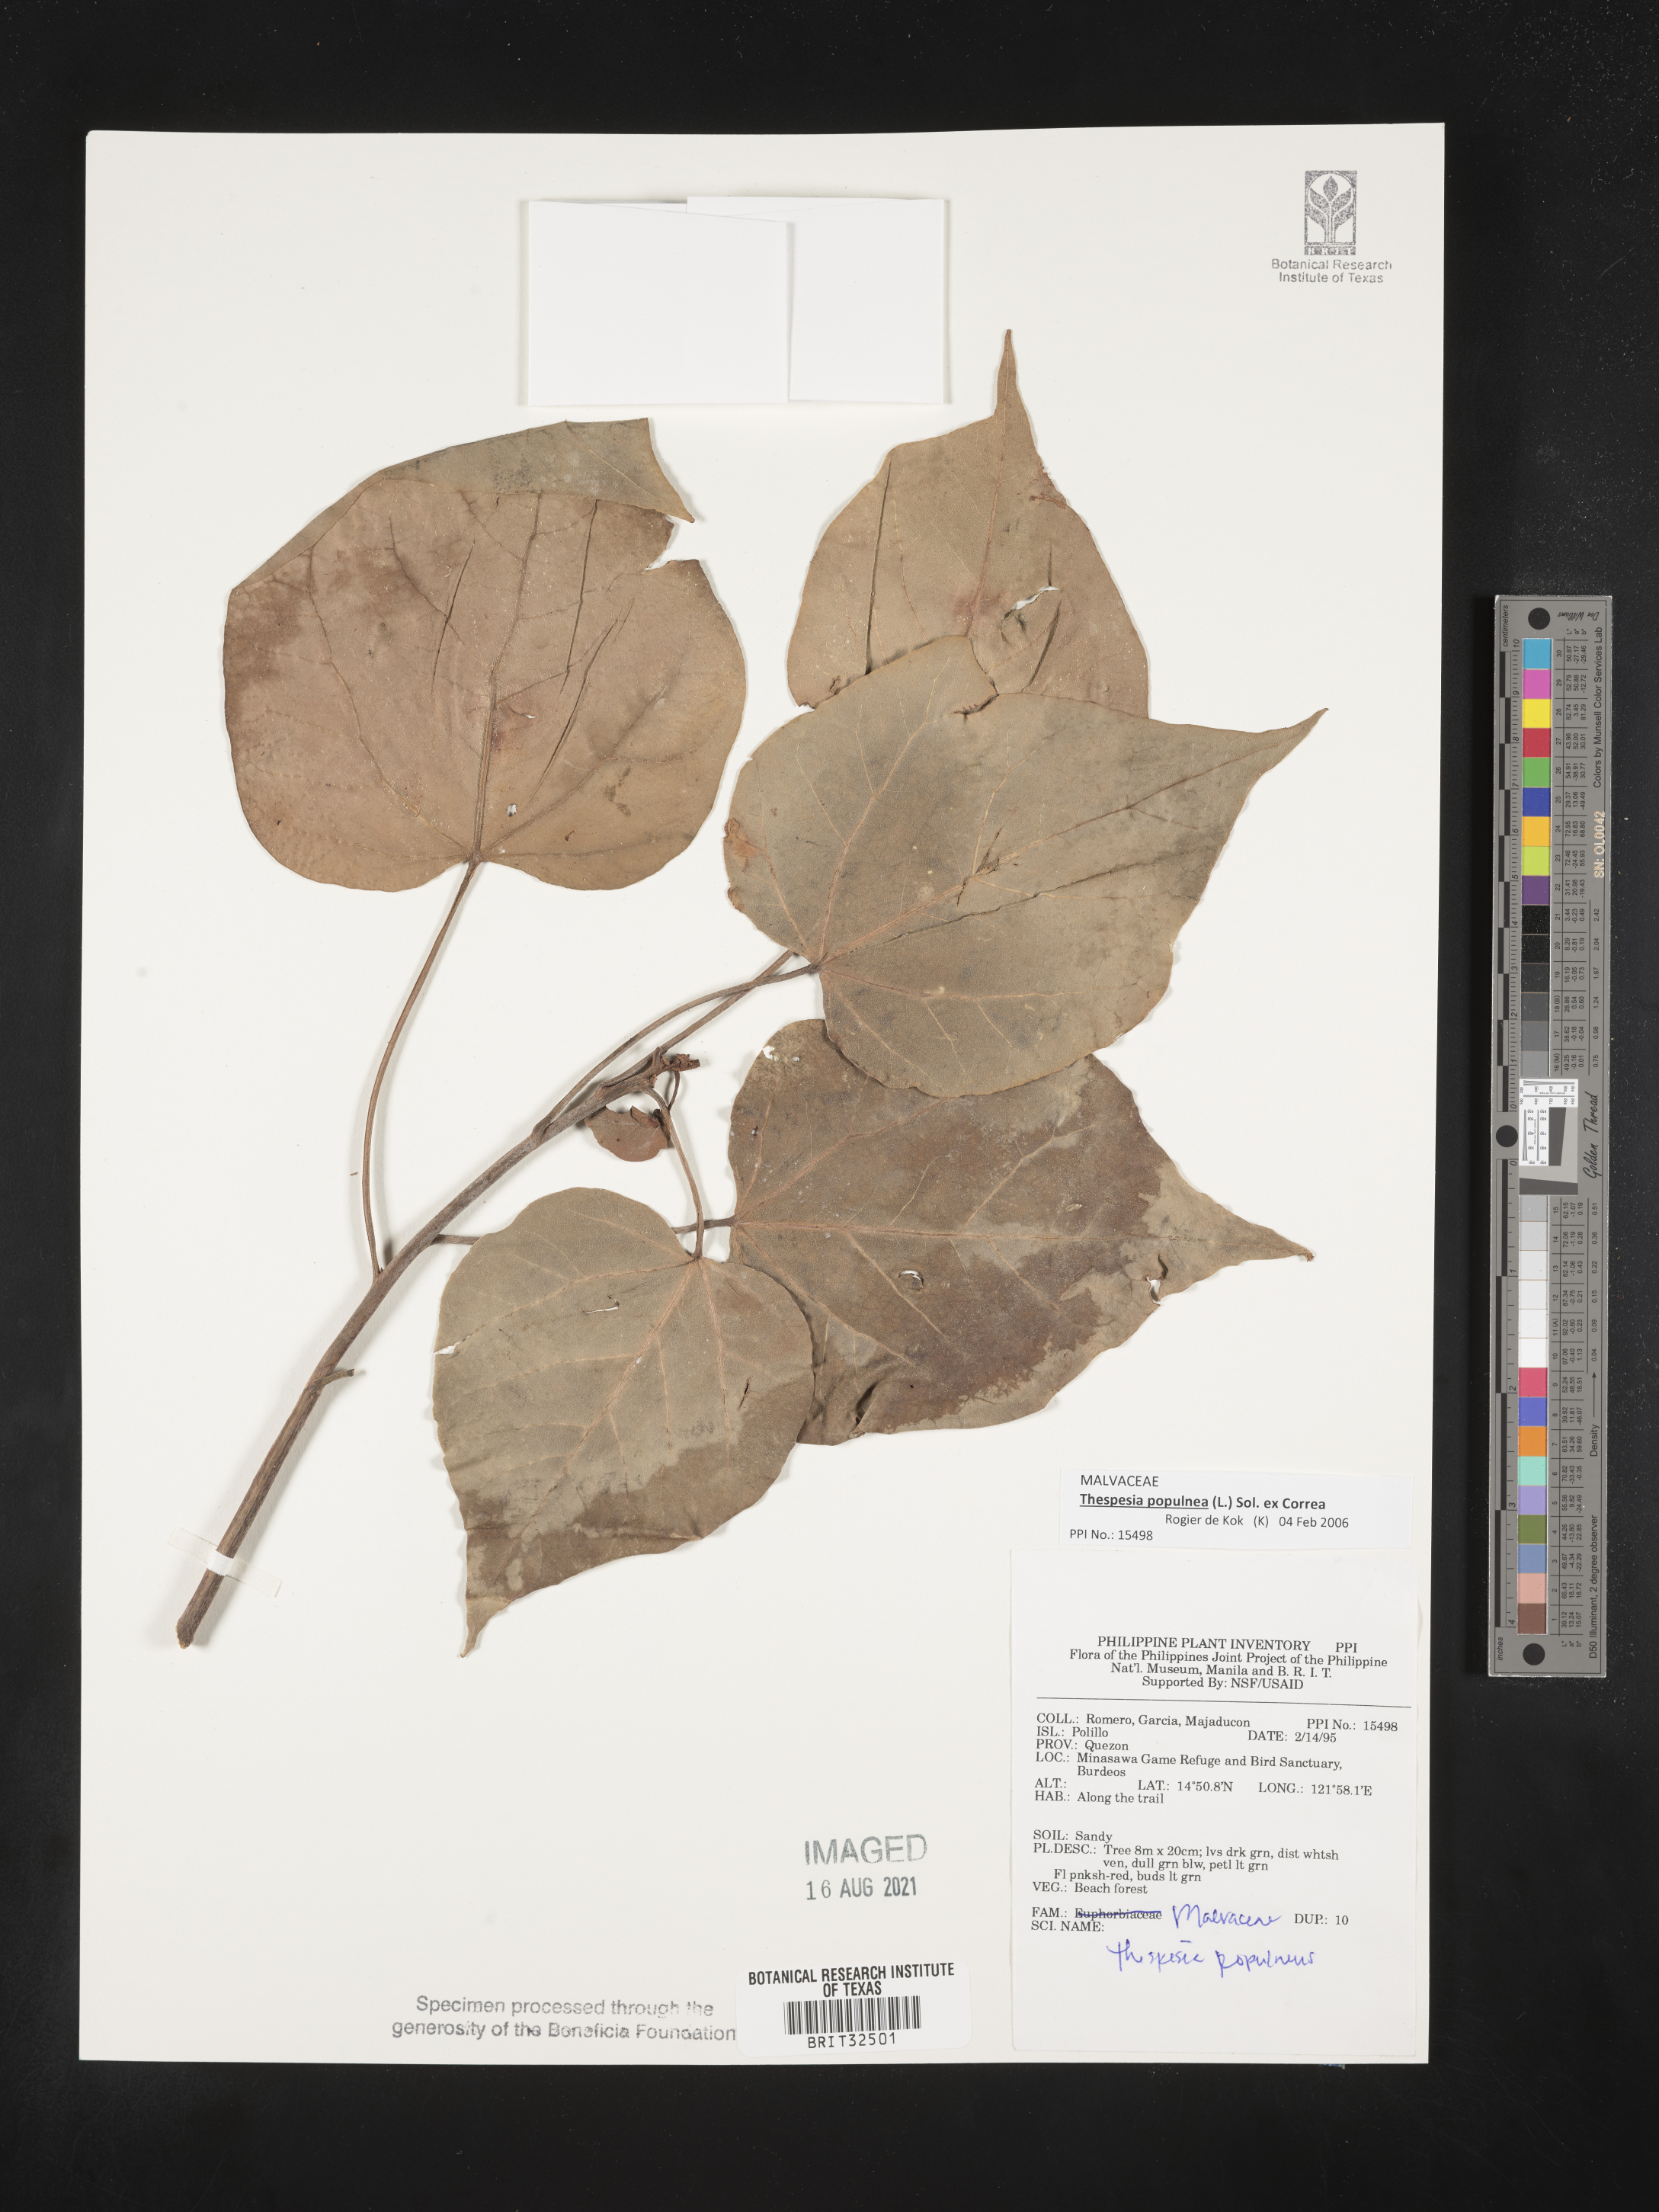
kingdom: Plantae
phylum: Tracheophyta
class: Magnoliopsida
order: Malvales
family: Malvaceae
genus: Thespesia
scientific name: Thespesia populnea
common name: Seaside mahoe
